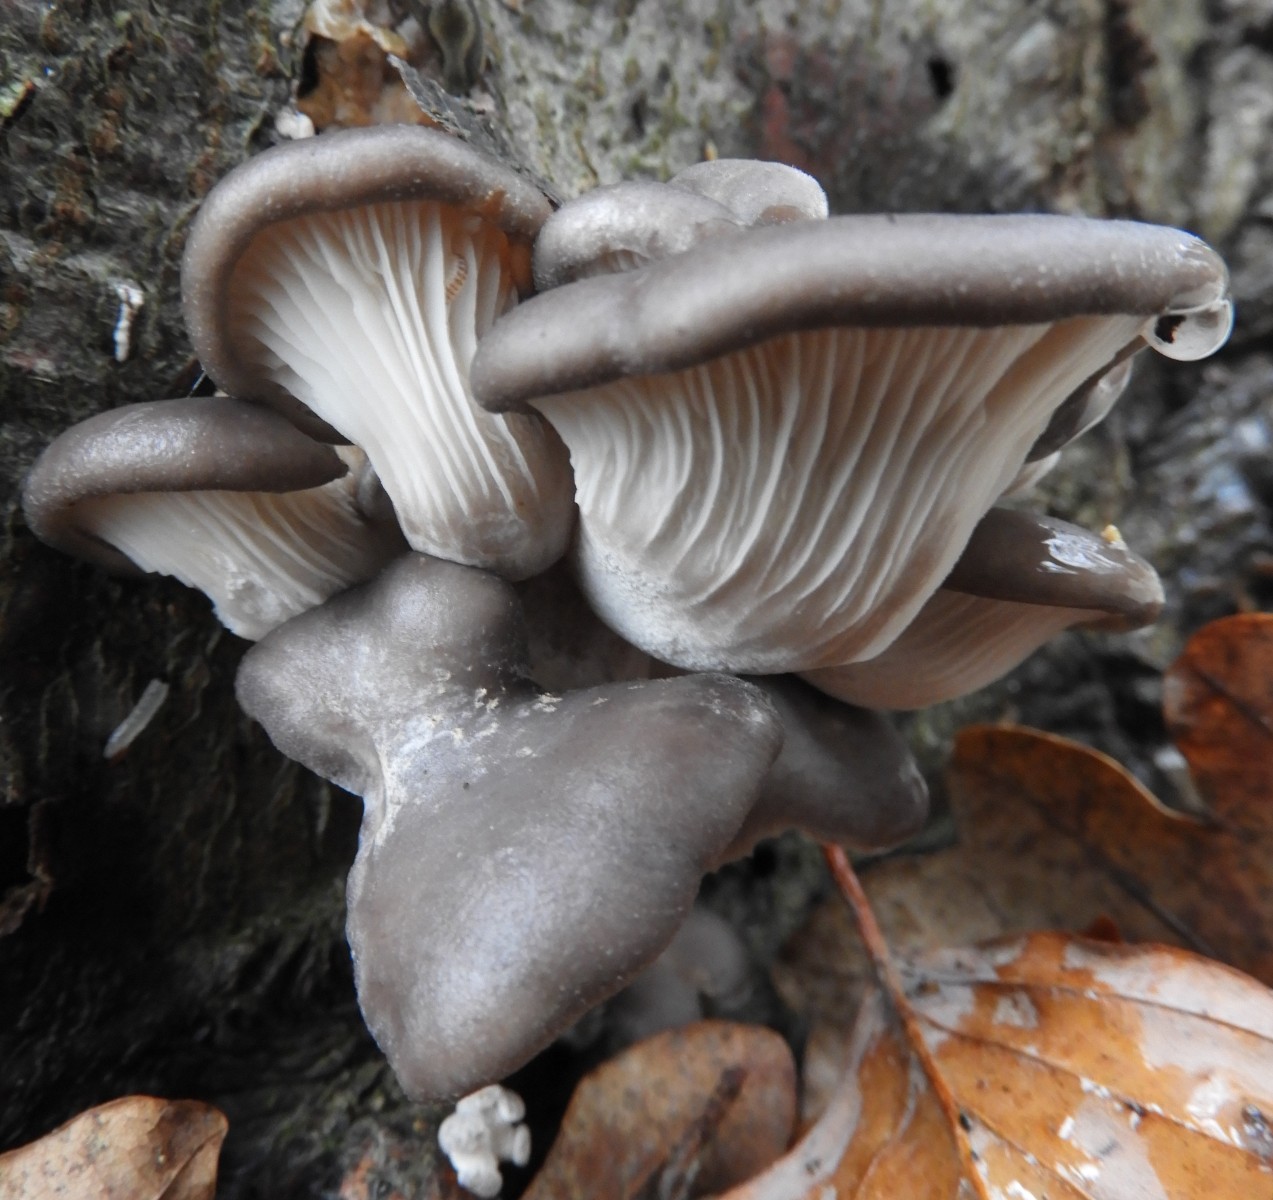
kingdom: Fungi
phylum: Basidiomycota
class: Agaricomycetes
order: Agaricales
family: Pleurotaceae
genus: Pleurotus
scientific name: Pleurotus ostreatus
